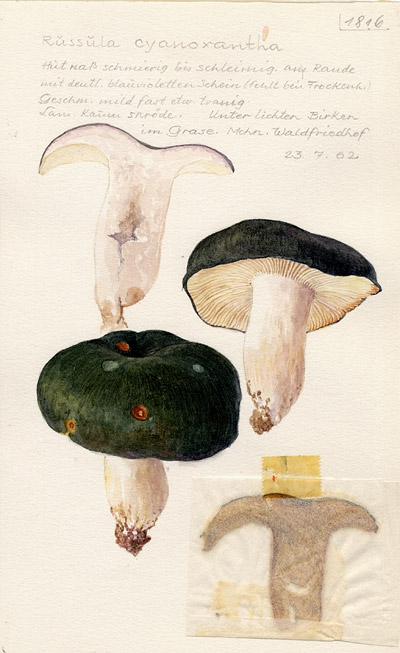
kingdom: Fungi
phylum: Basidiomycota
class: Agaricomycetes
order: Russulales
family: Russulaceae
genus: Russula
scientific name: Russula cyanoxantha
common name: Charcoal burner
